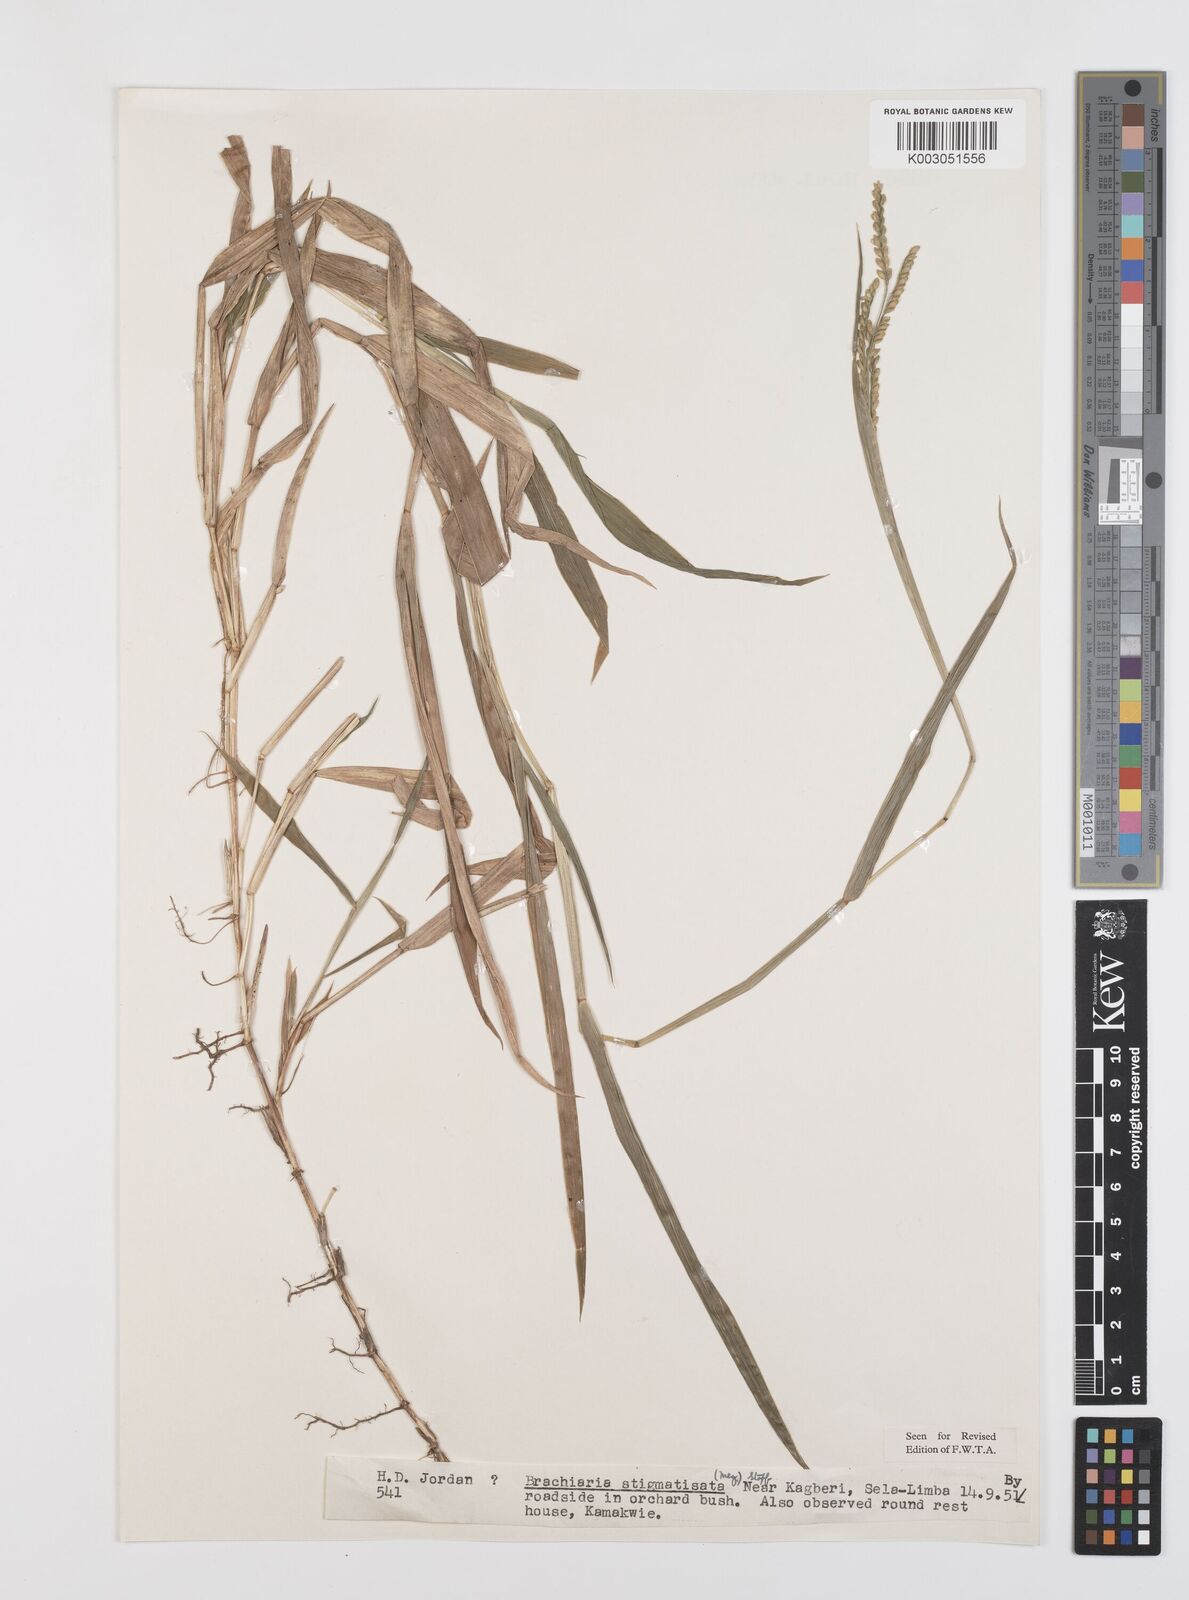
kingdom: Plantae
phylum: Tracheophyta
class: Liliopsida
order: Poales
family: Poaceae
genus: Urochloa
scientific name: Urochloa stigmatisata
